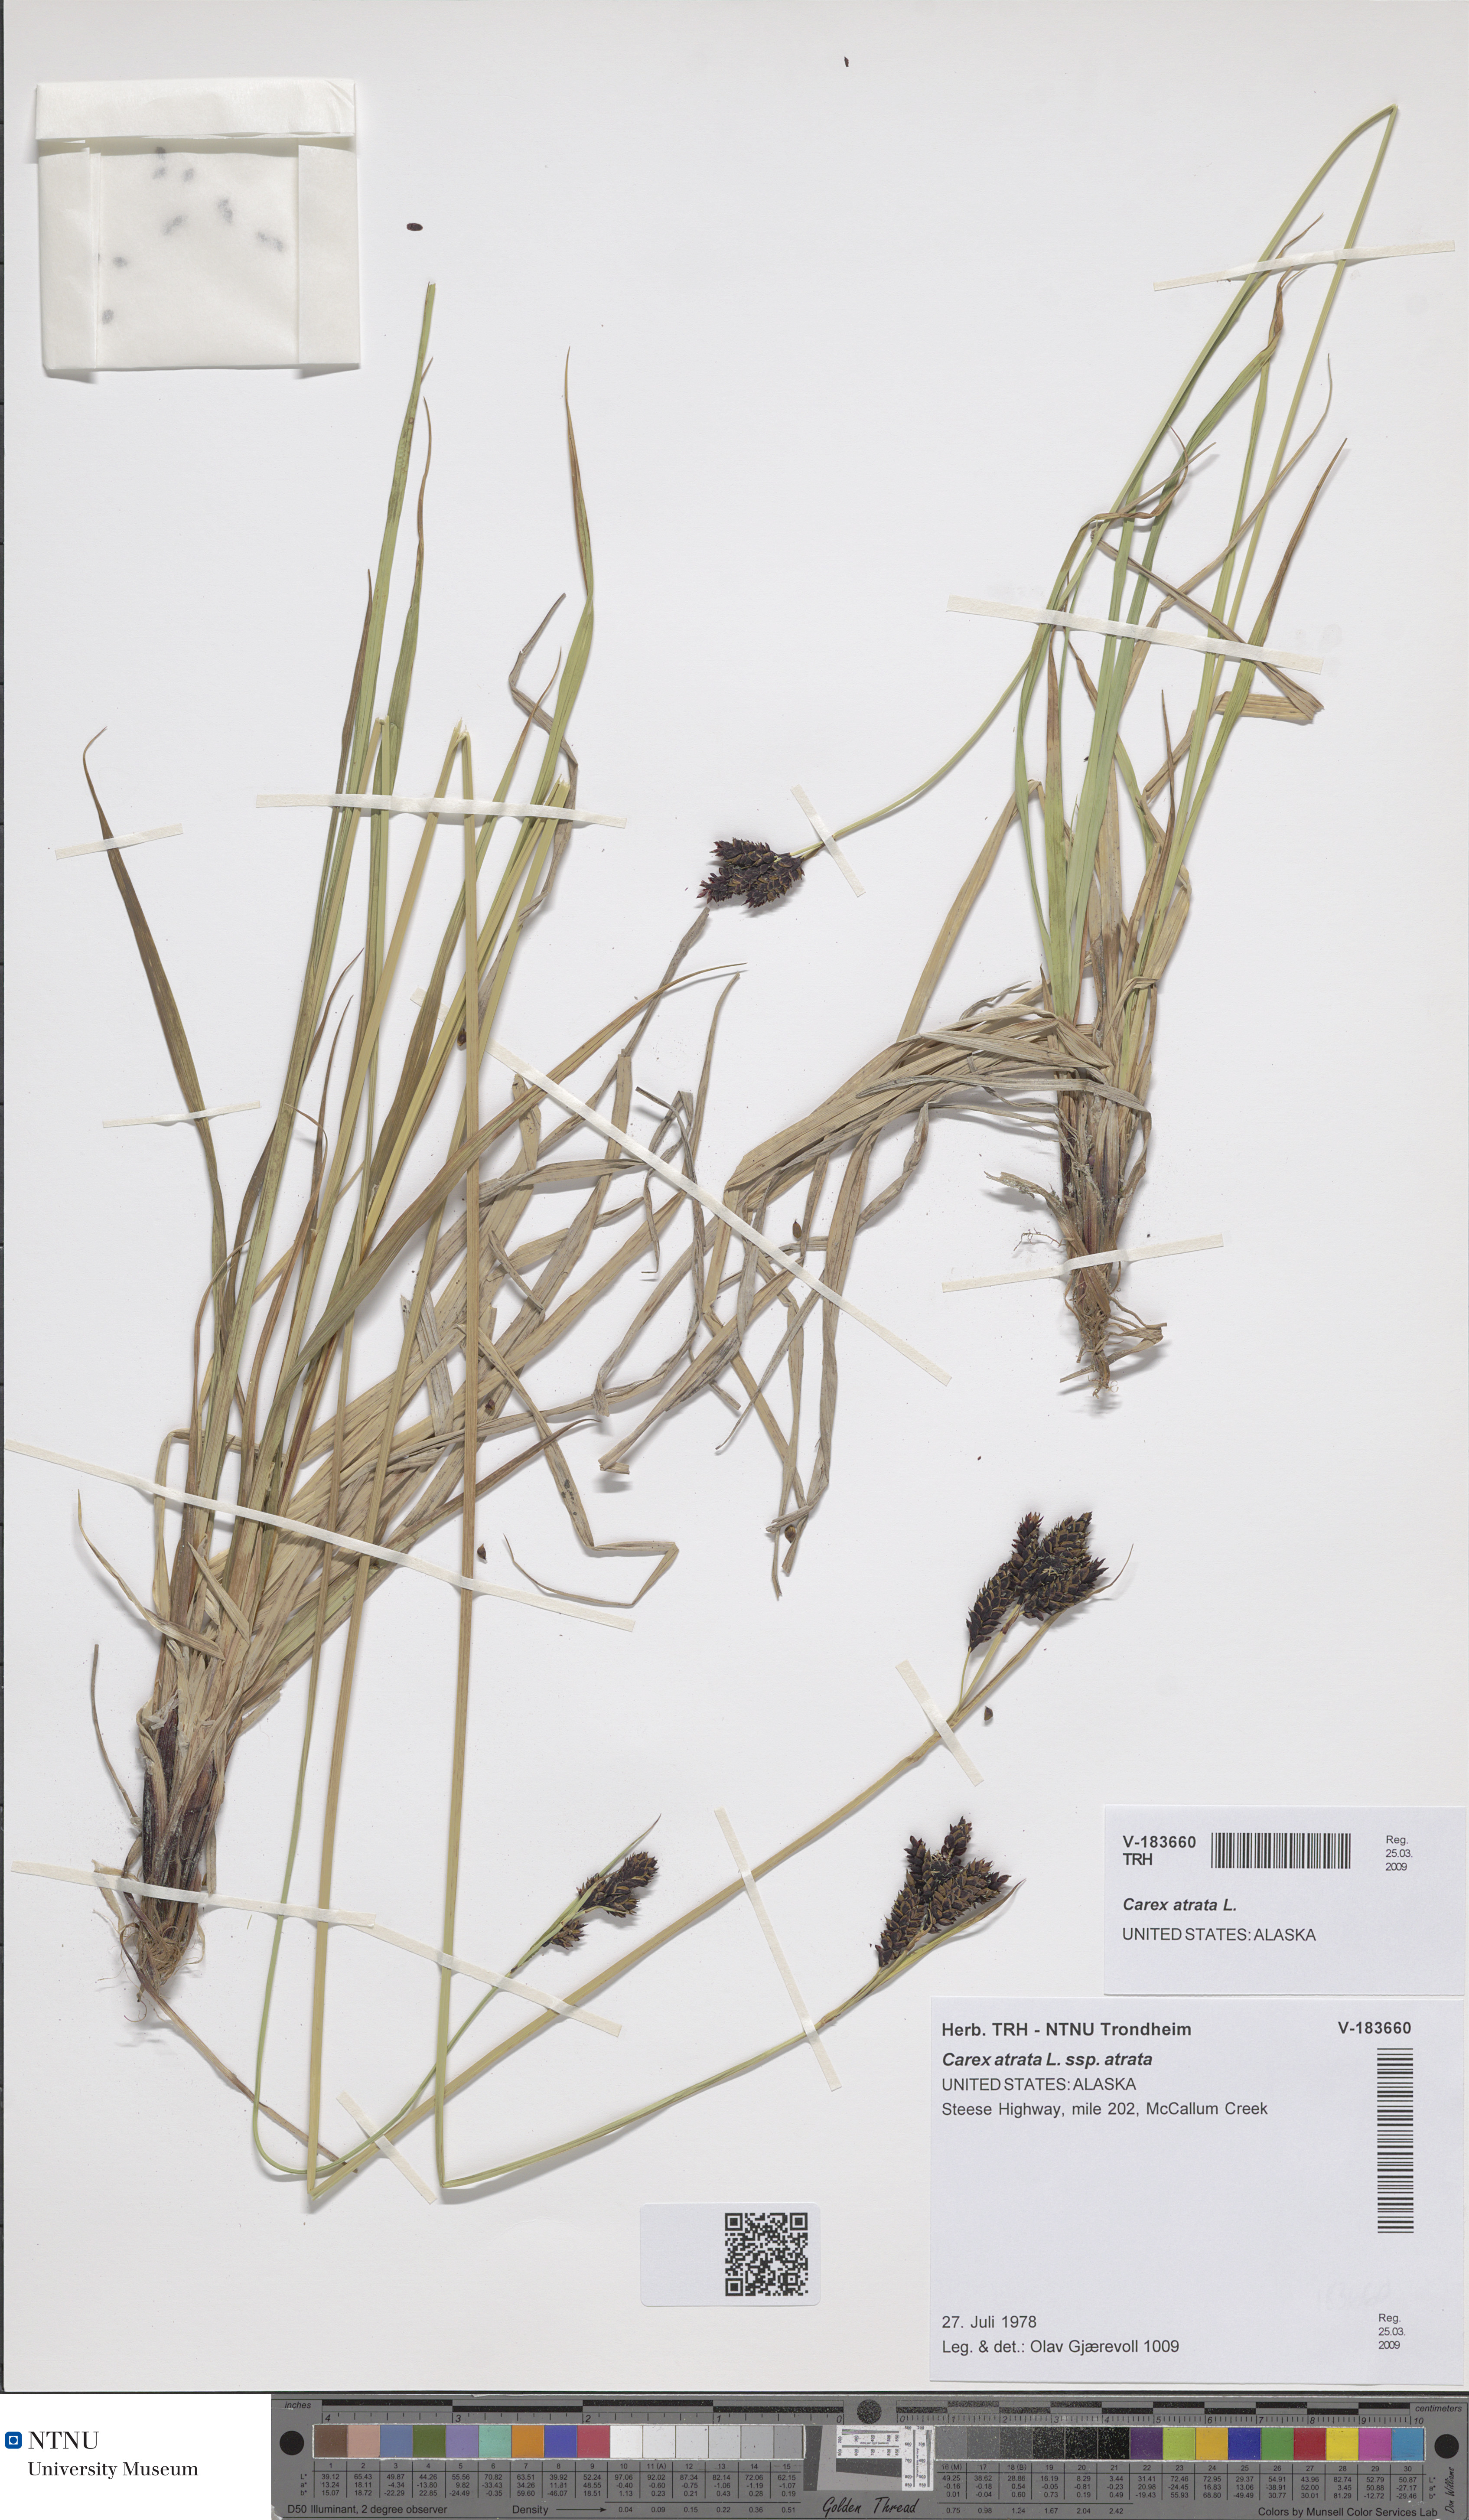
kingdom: Plantae
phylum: Tracheophyta
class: Liliopsida
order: Poales
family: Cyperaceae
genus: Carex
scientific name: Carex atrata
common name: Black alpine sedge
